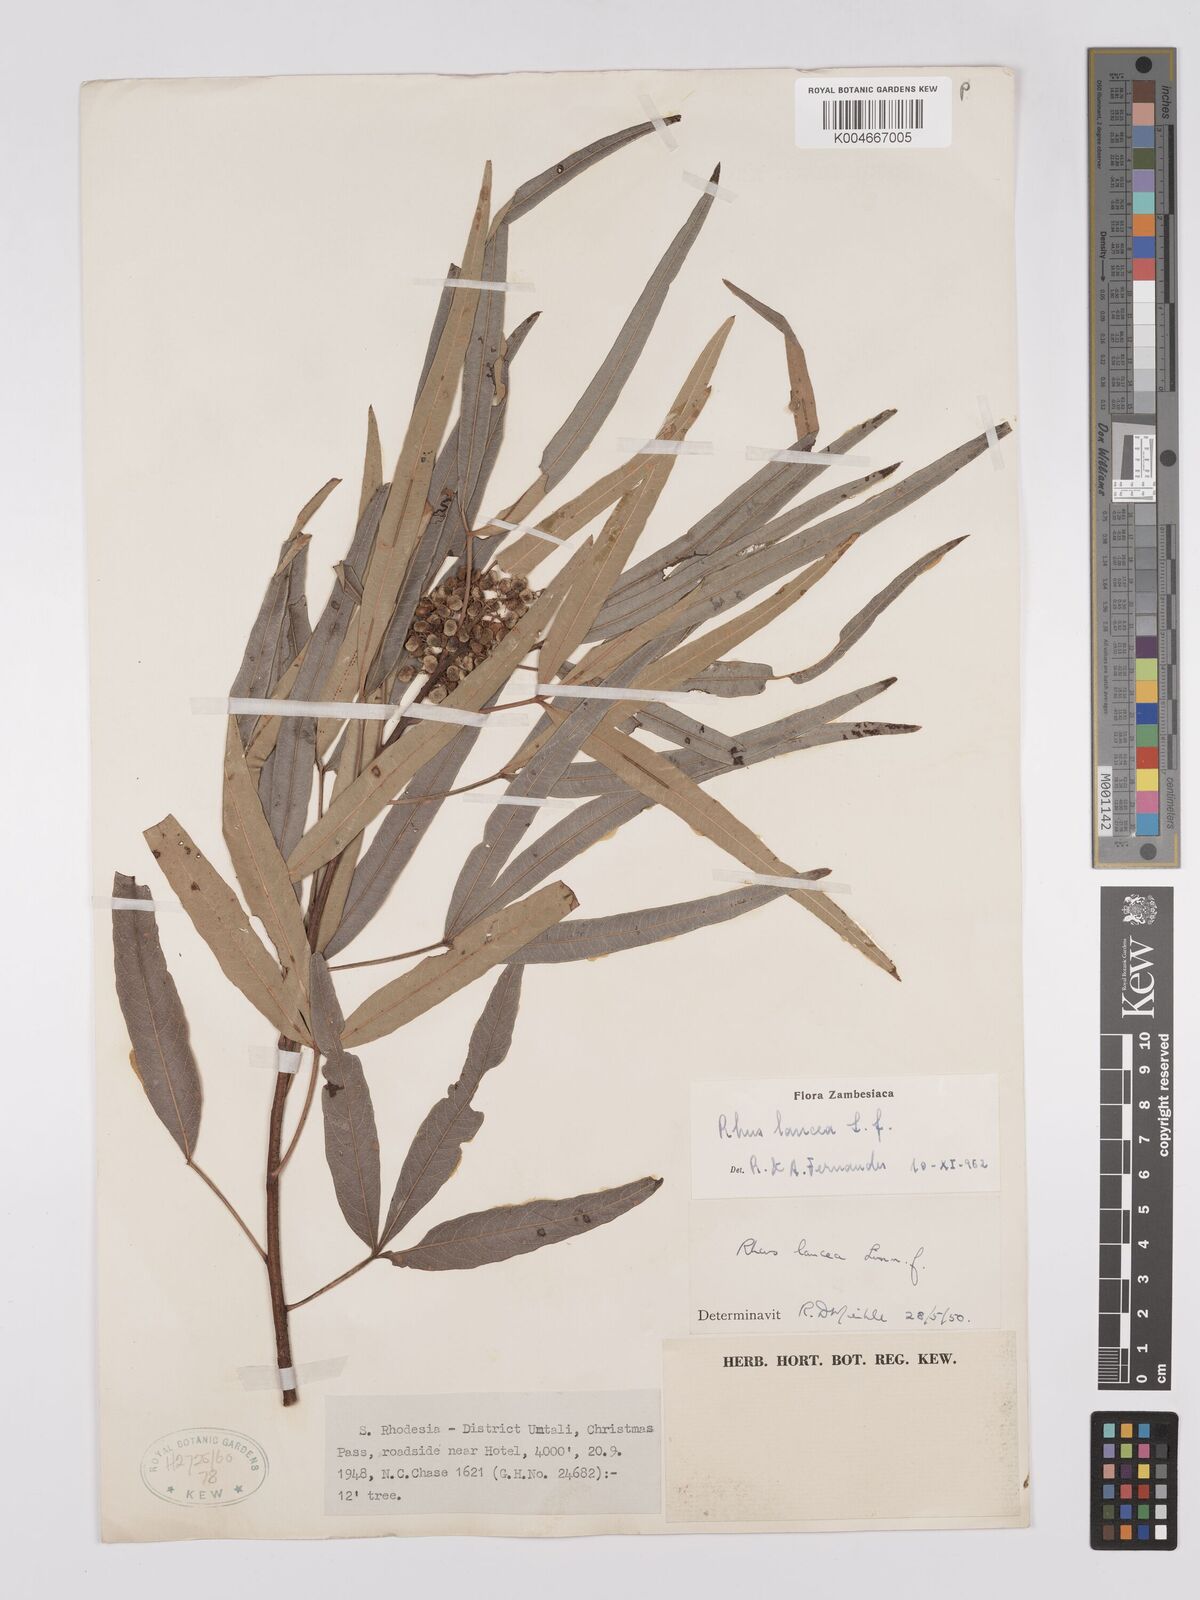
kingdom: Plantae
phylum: Tracheophyta
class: Magnoliopsida
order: Sapindales
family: Anacardiaceae
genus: Searsia
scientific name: Searsia lancea
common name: Cashew
